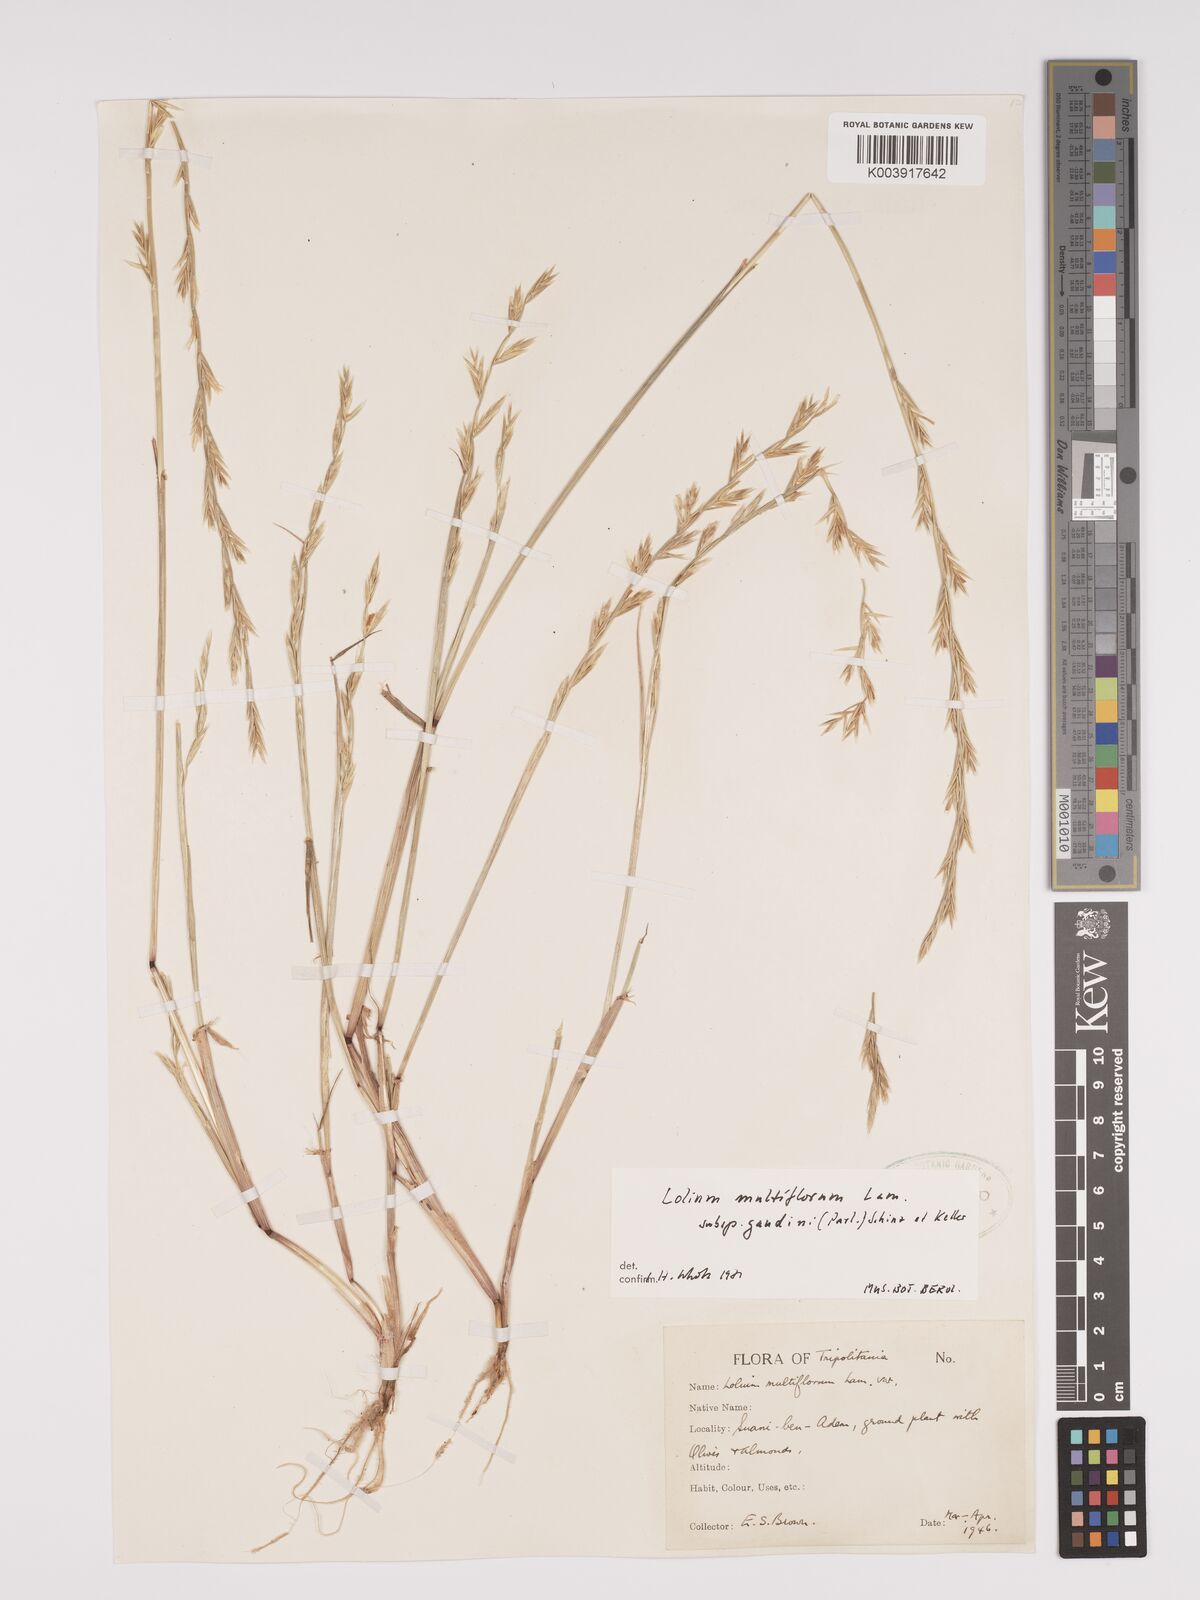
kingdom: Plantae
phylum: Tracheophyta
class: Liliopsida
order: Poales
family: Poaceae
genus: Lolium
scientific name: Lolium multiflorum
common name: Annual ryegrass
